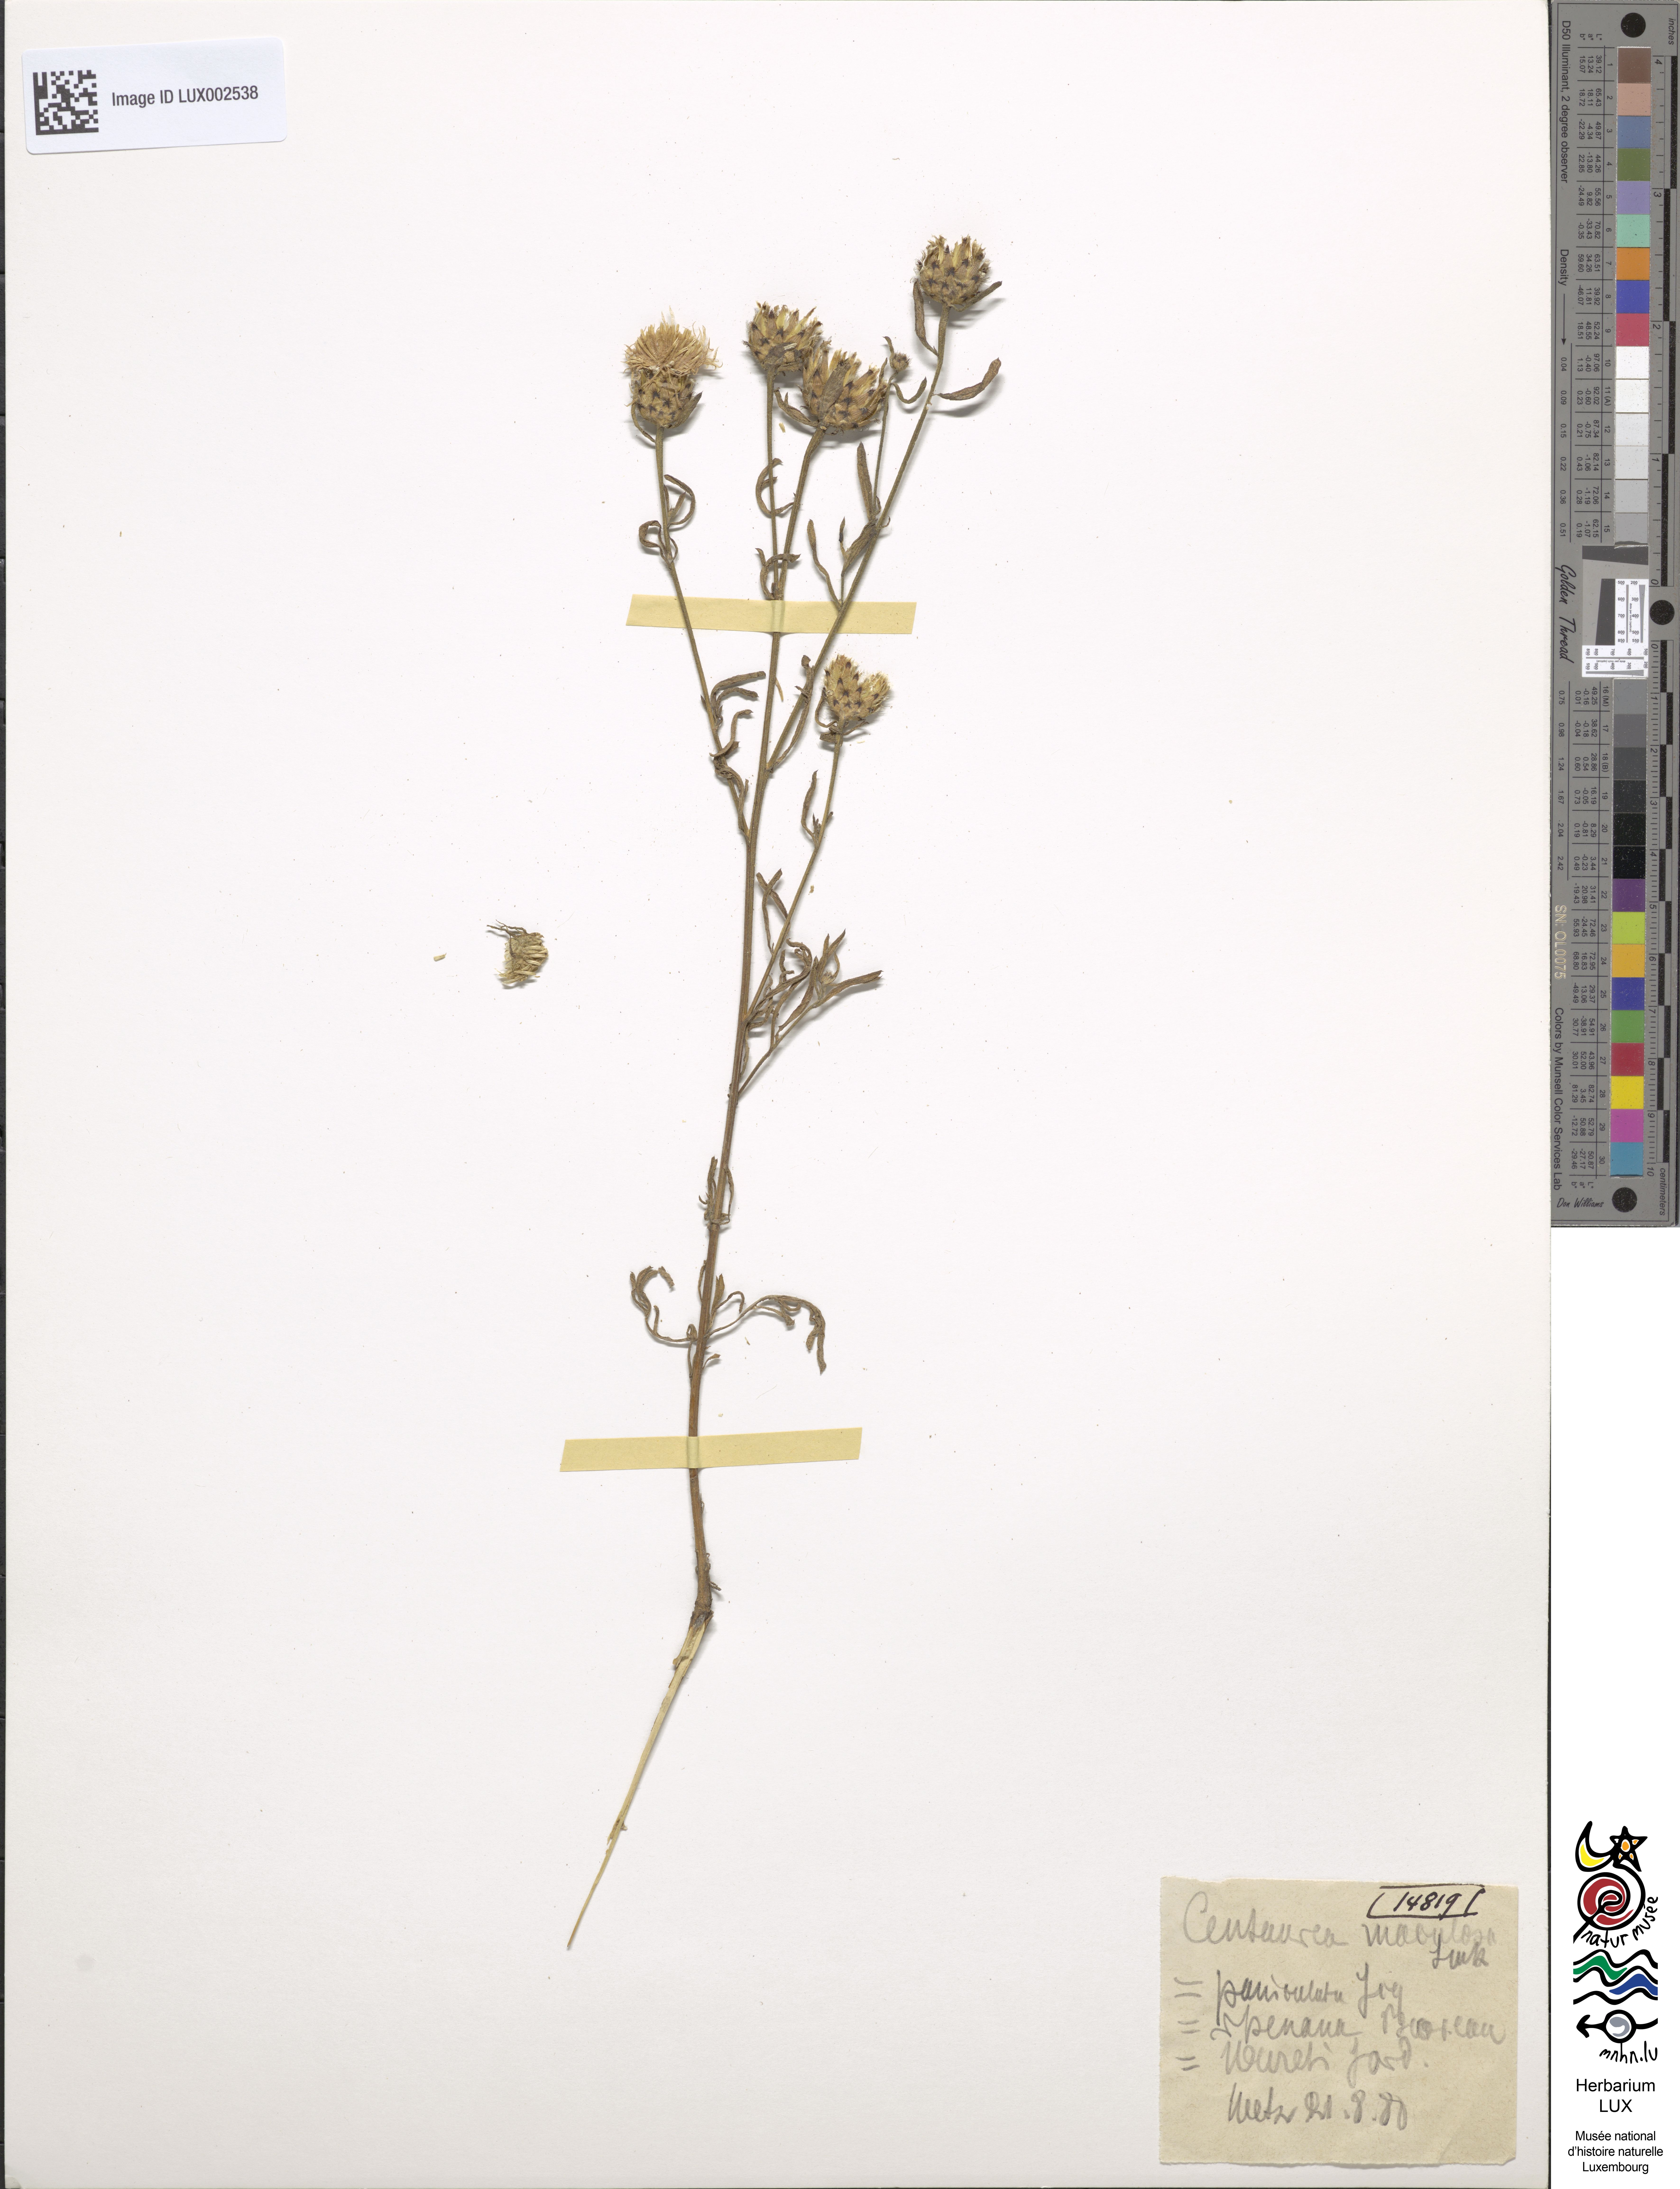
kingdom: Plantae
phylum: Tracheophyta
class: Magnoliopsida
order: Asterales
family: Asteraceae
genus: Centaurea
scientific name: Centaurea stoebe
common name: Spotted knapweed
